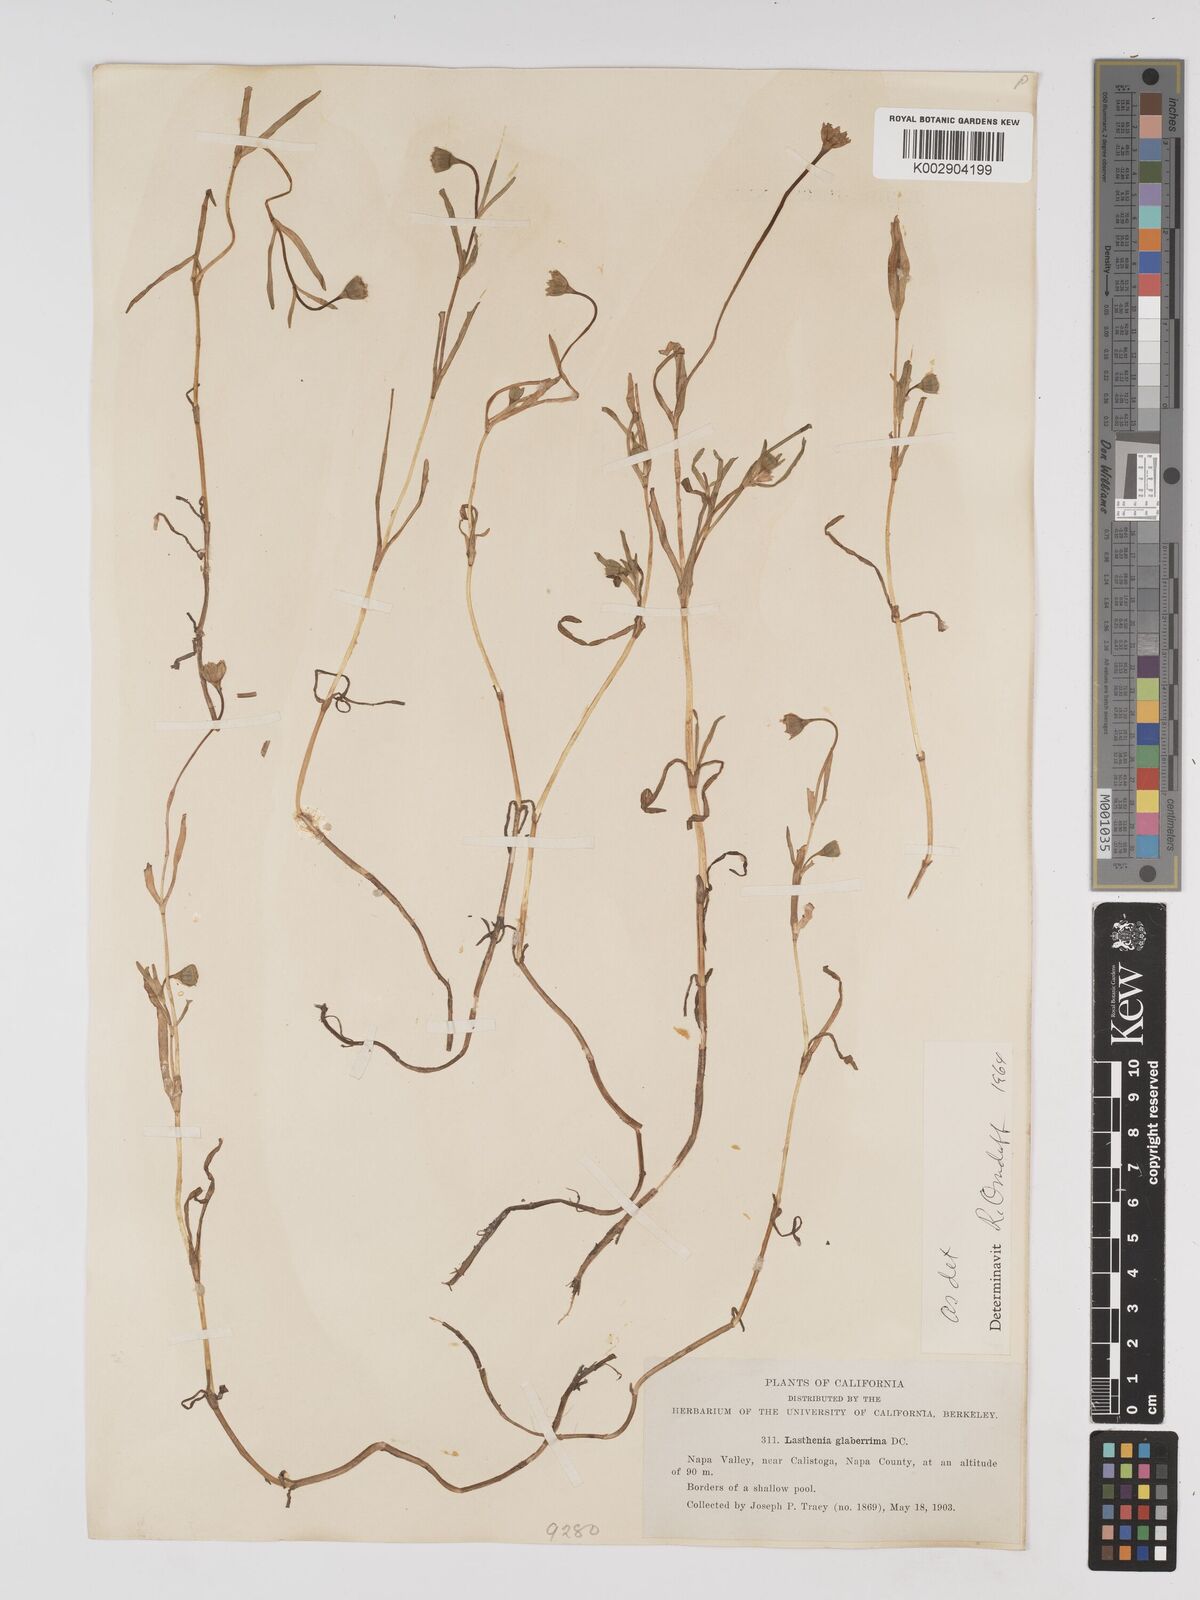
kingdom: Plantae
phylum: Tracheophyta
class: Magnoliopsida
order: Asterales
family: Asteraceae
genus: Lasthenia
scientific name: Lasthenia glaberrima
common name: Smooth goldfields
